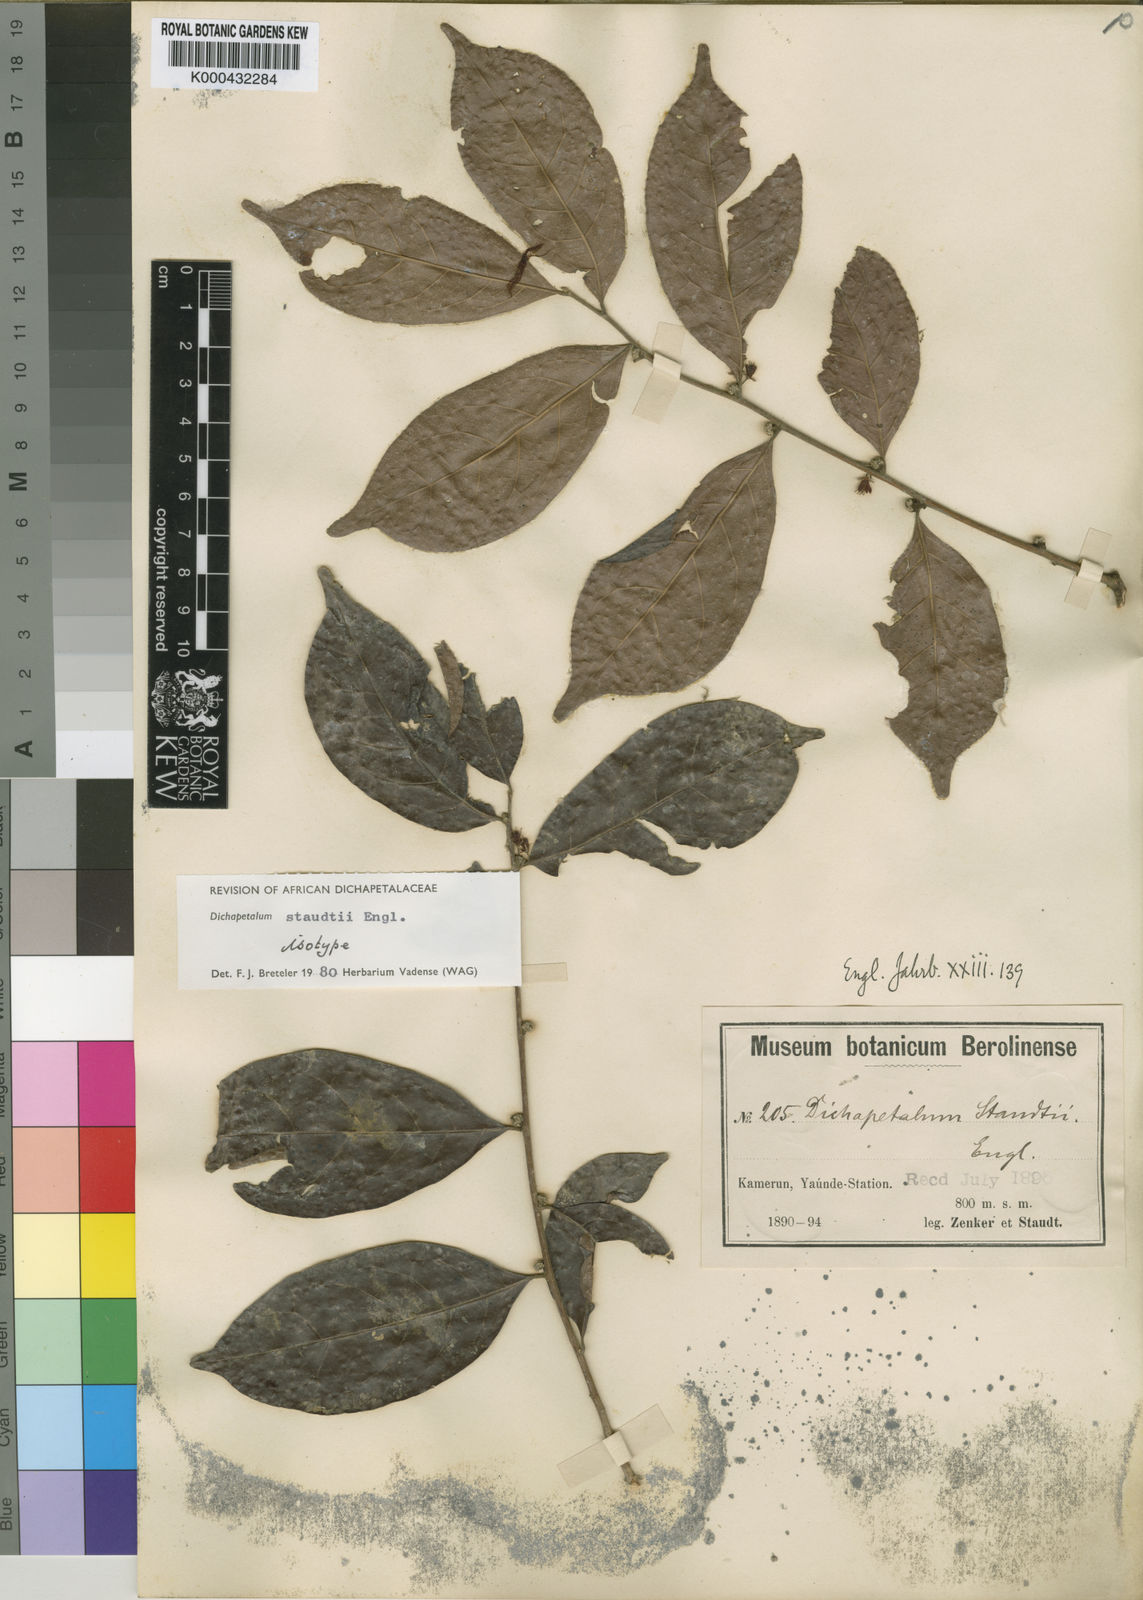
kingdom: Plantae
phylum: Tracheophyta
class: Magnoliopsida
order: Malpighiales
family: Dichapetalaceae
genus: Dichapetalum
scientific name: Dichapetalum staudtii
